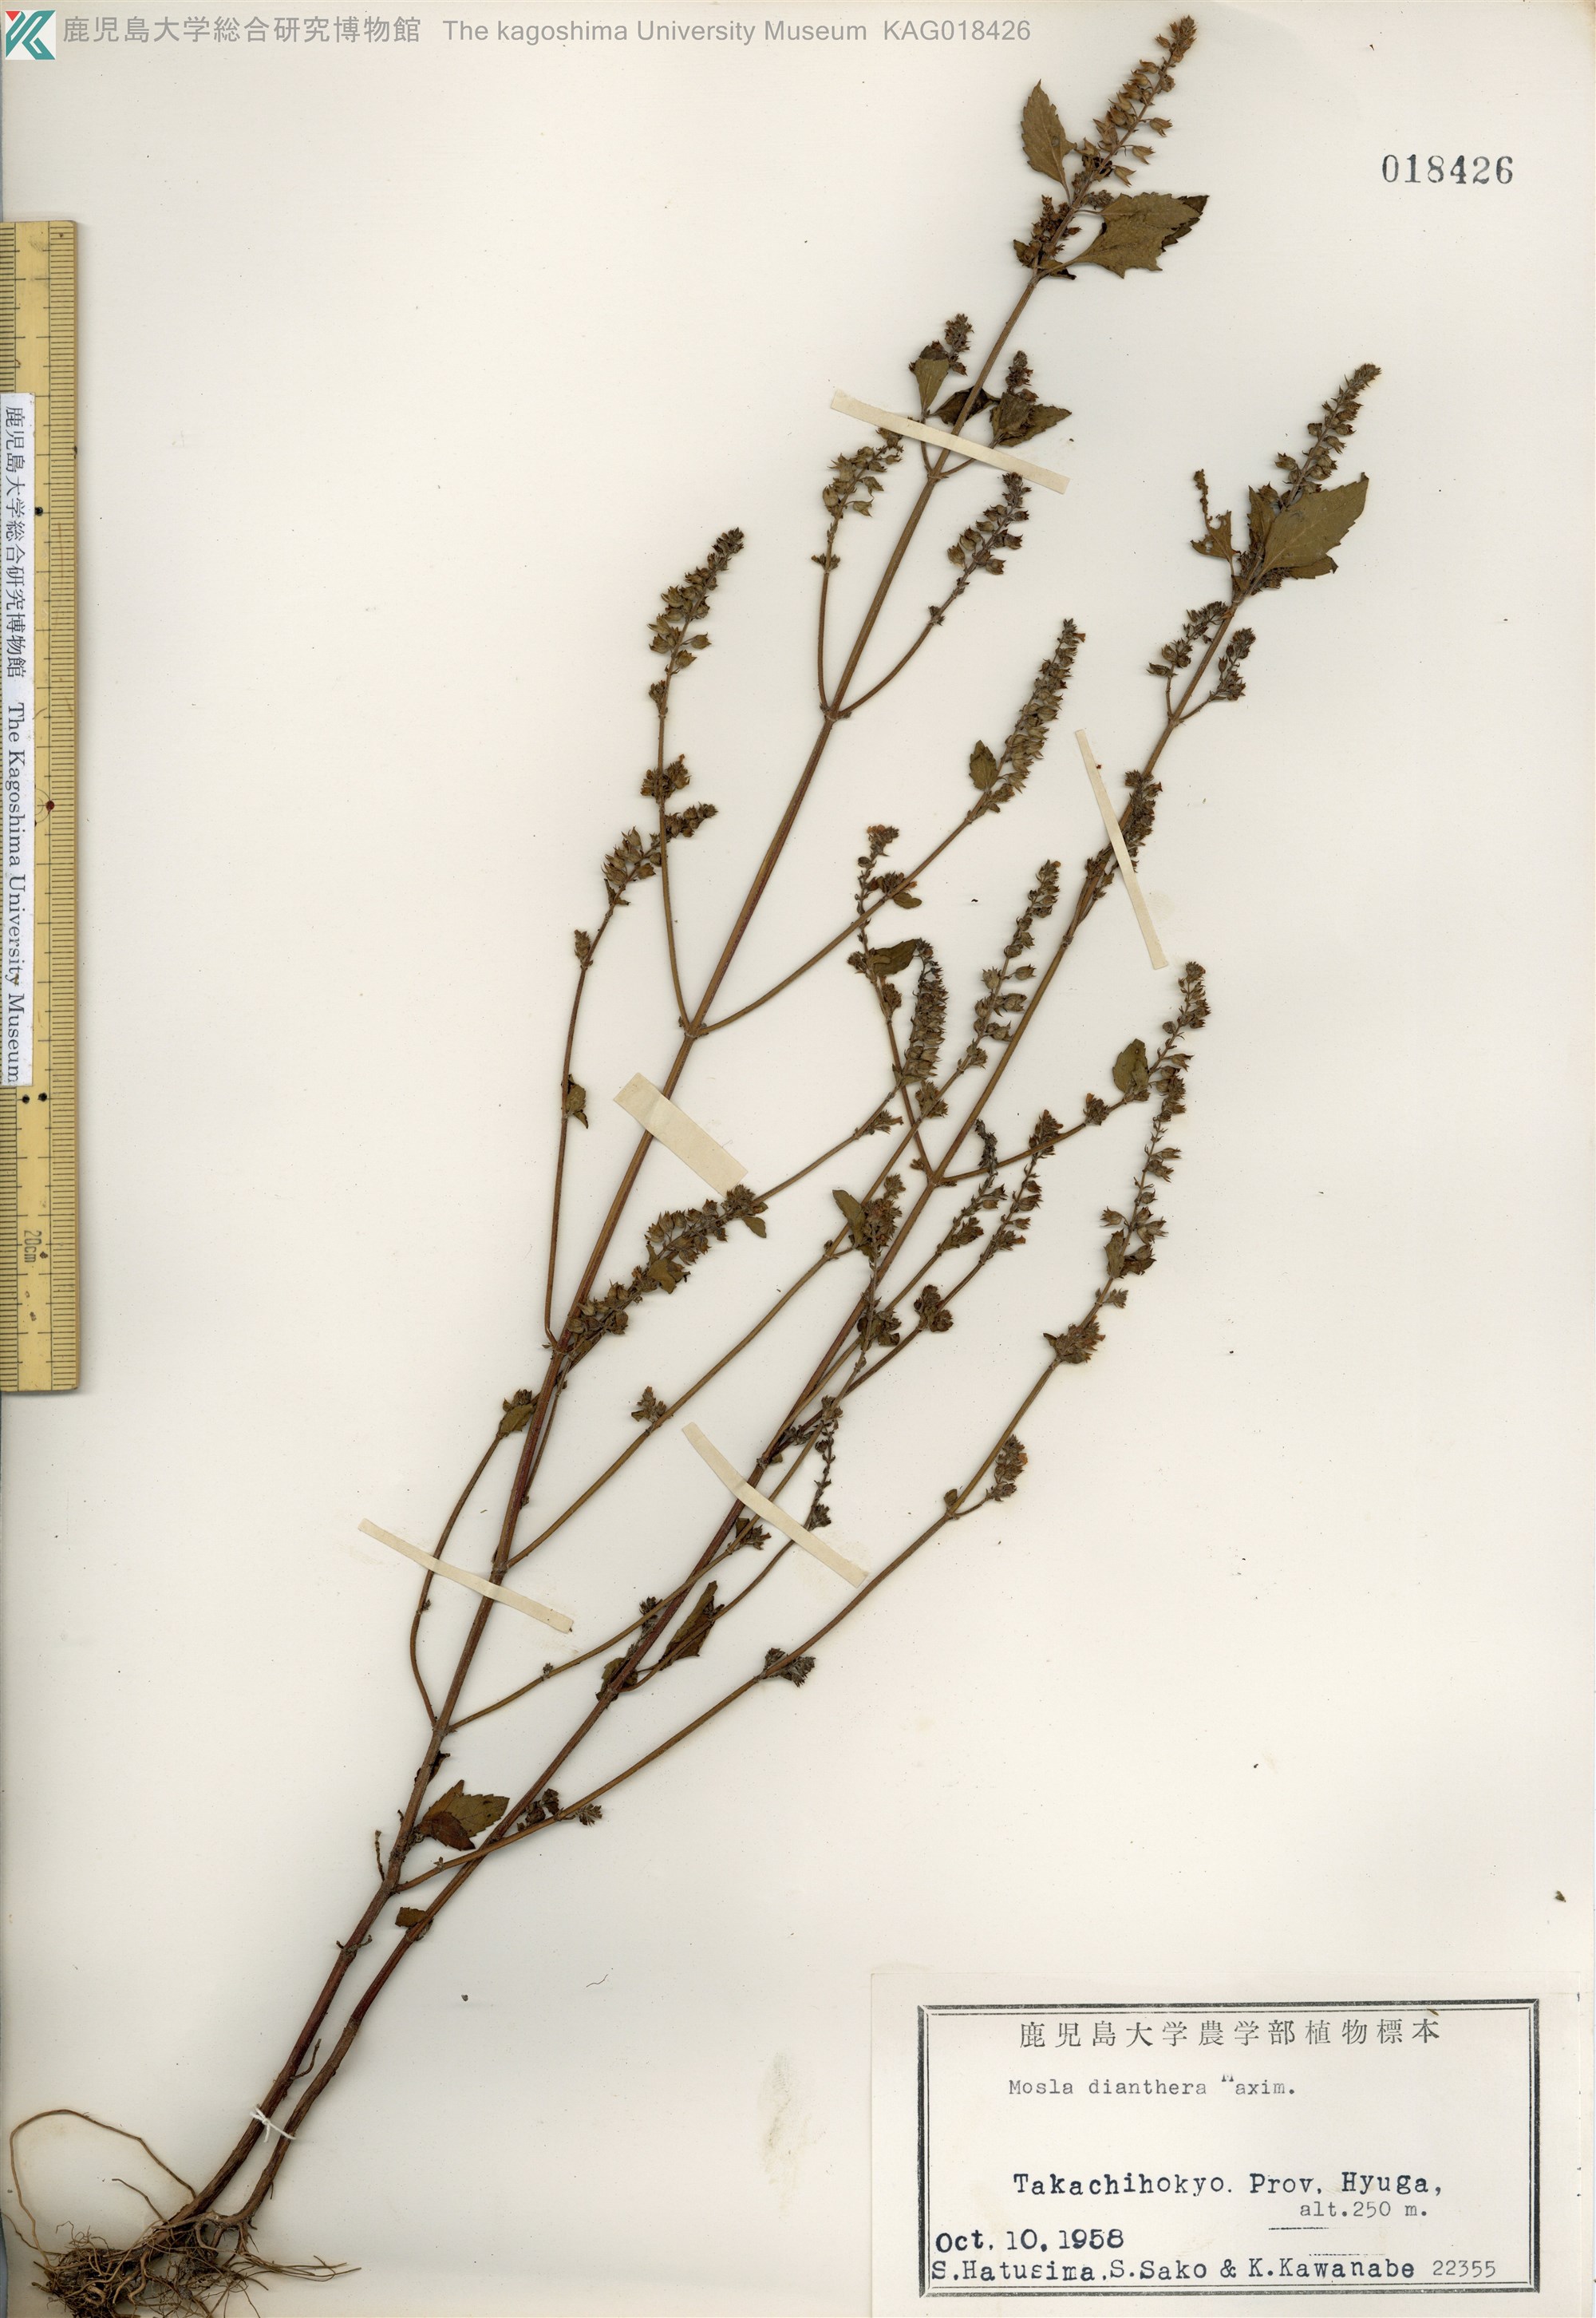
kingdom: Plantae
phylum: Tracheophyta
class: Magnoliopsida
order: Lamiales
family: Lamiaceae
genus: Mosla
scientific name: Mosla dianthera
